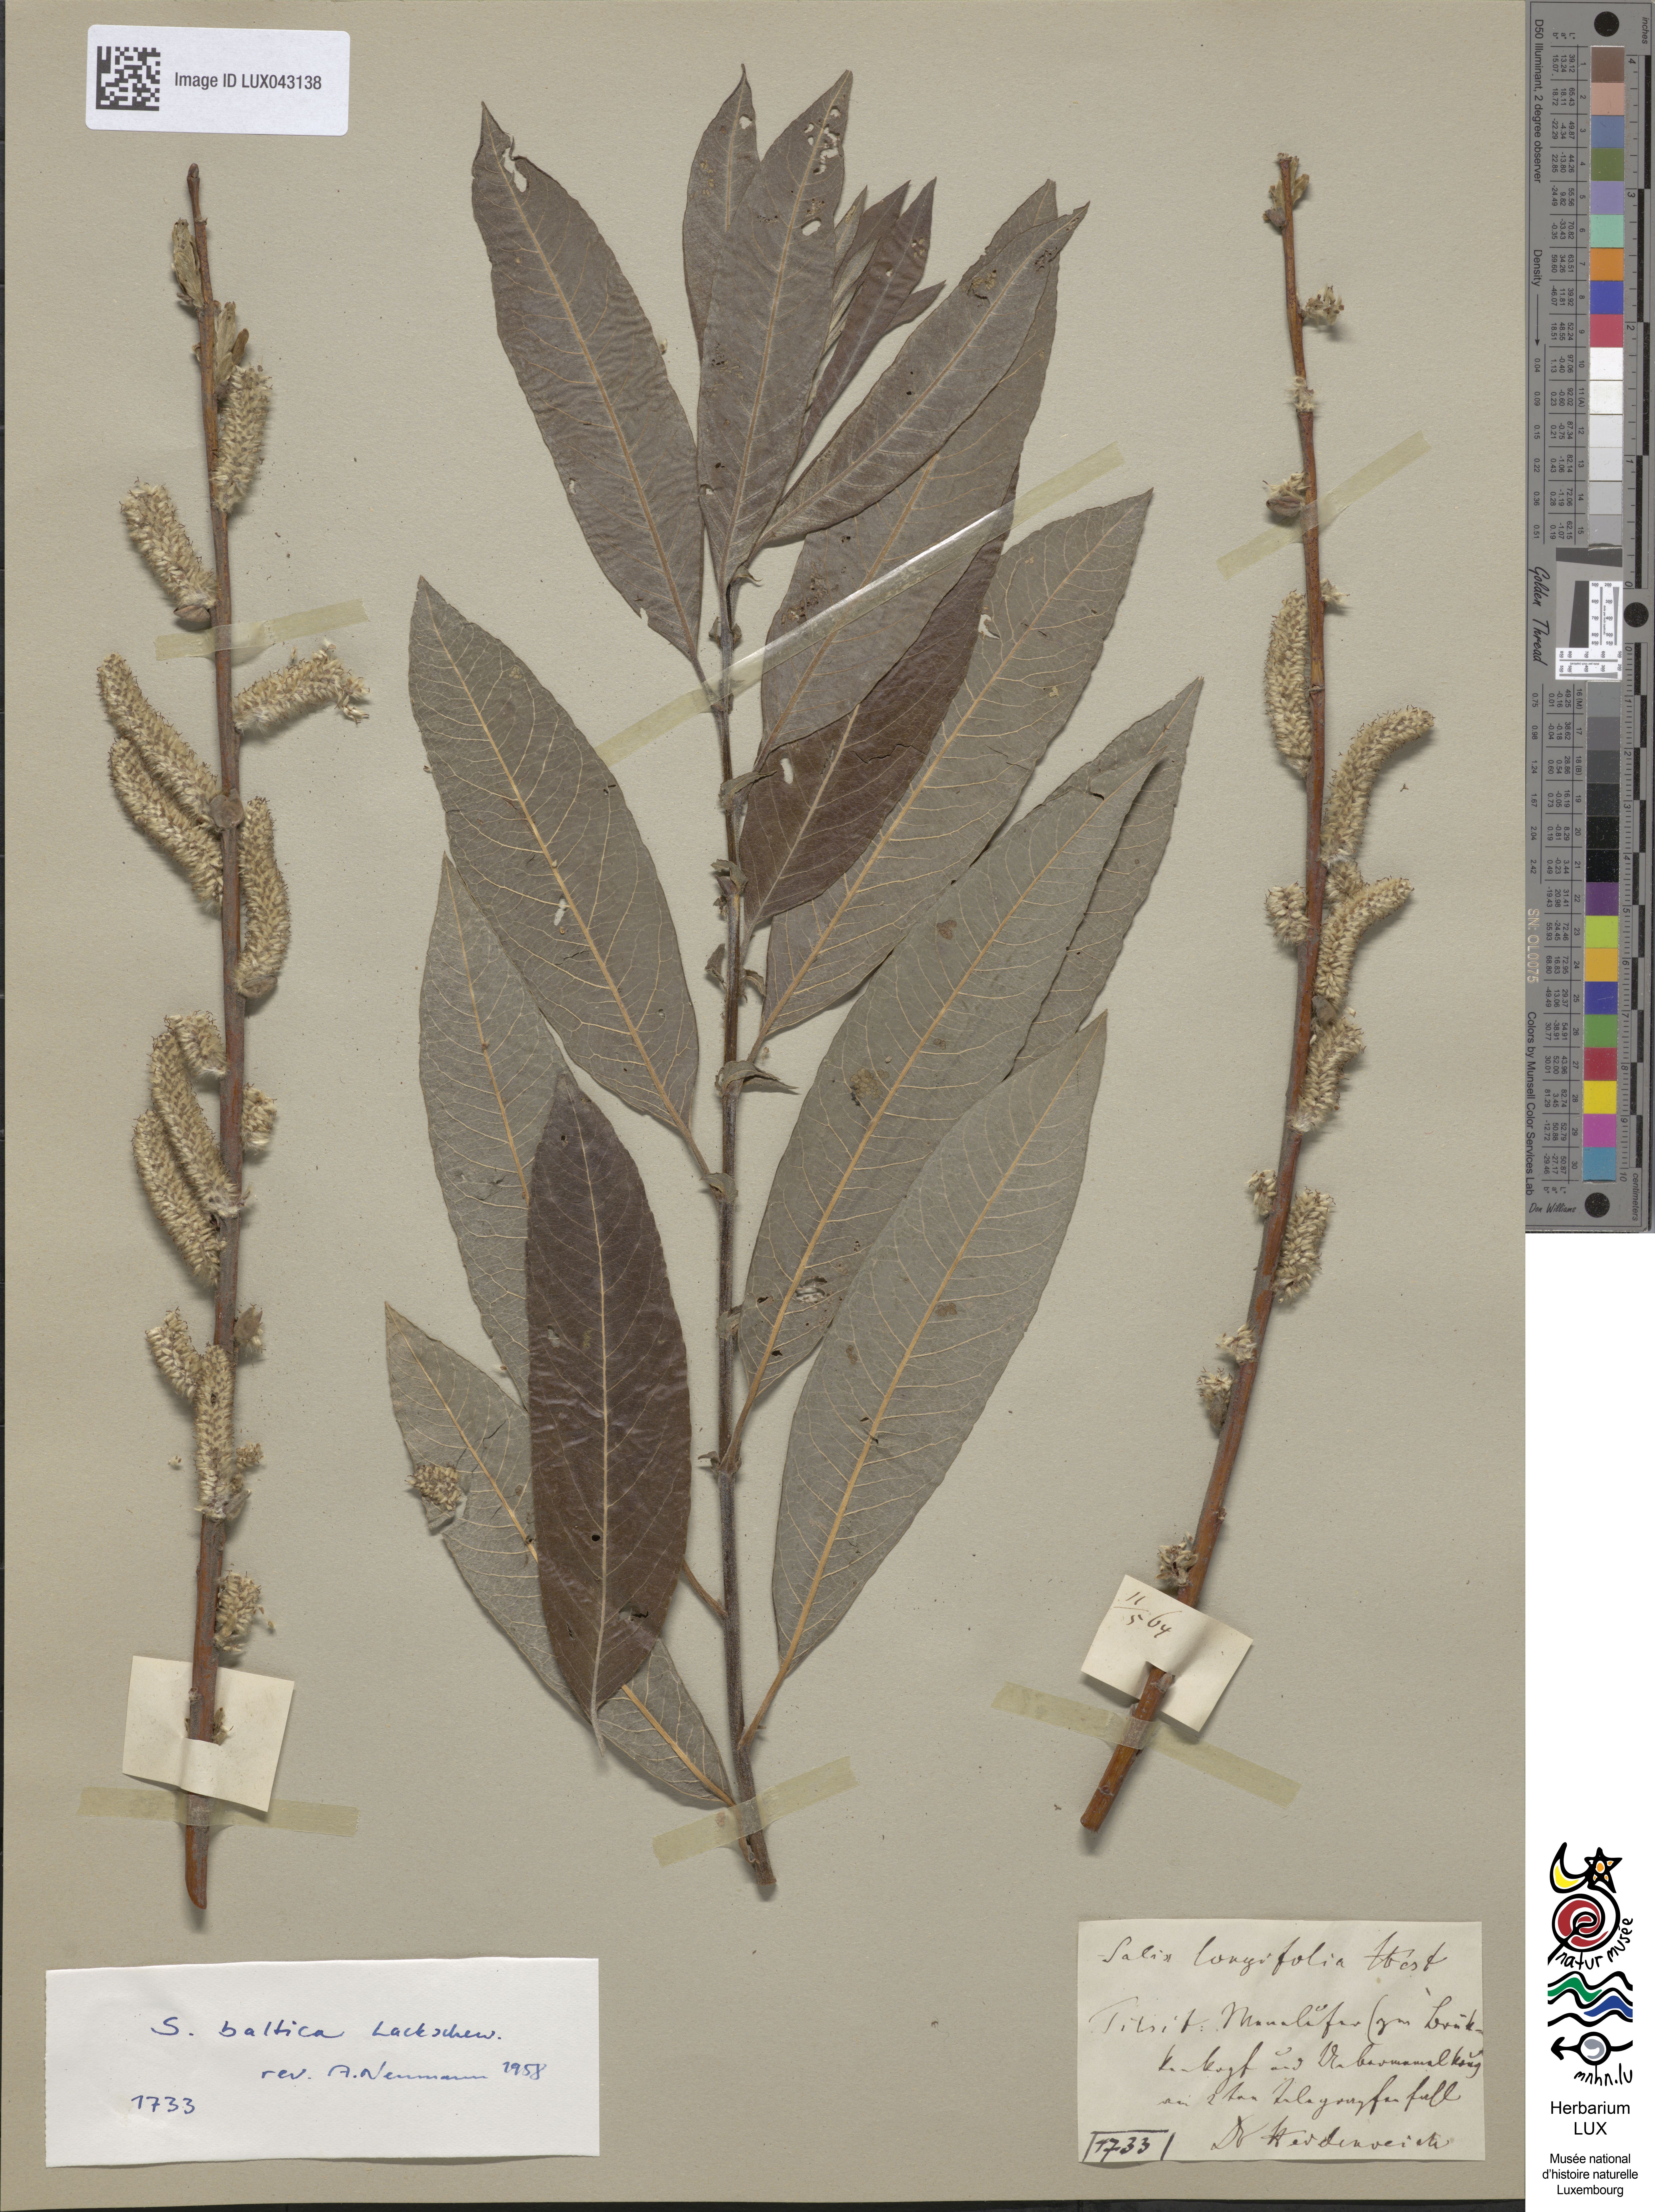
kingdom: Plantae
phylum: Tracheophyta
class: Magnoliopsida
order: Malpighiales
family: Salicaceae
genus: Salix
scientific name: Salix
